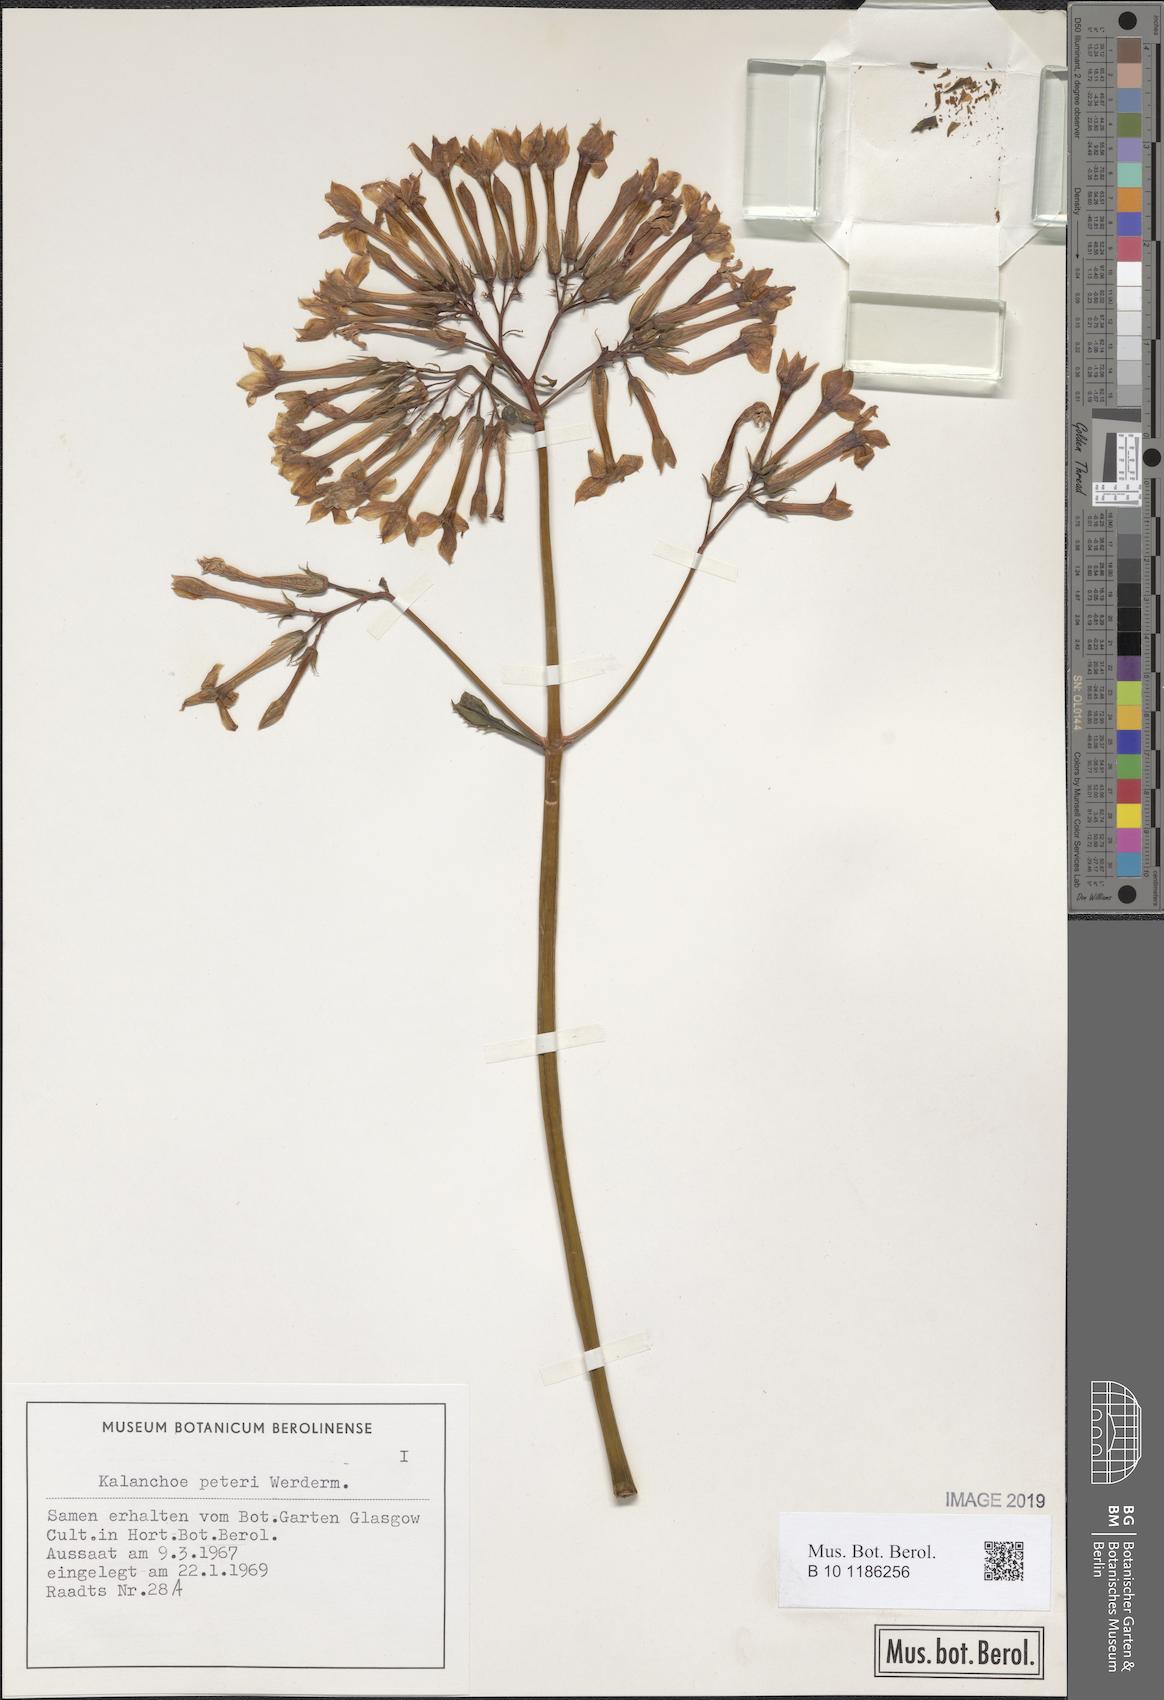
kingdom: Plantae
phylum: Tracheophyta
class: Magnoliopsida
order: Saxifragales
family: Crassulaceae
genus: Kalanchoe
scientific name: Kalanchoe peteri
